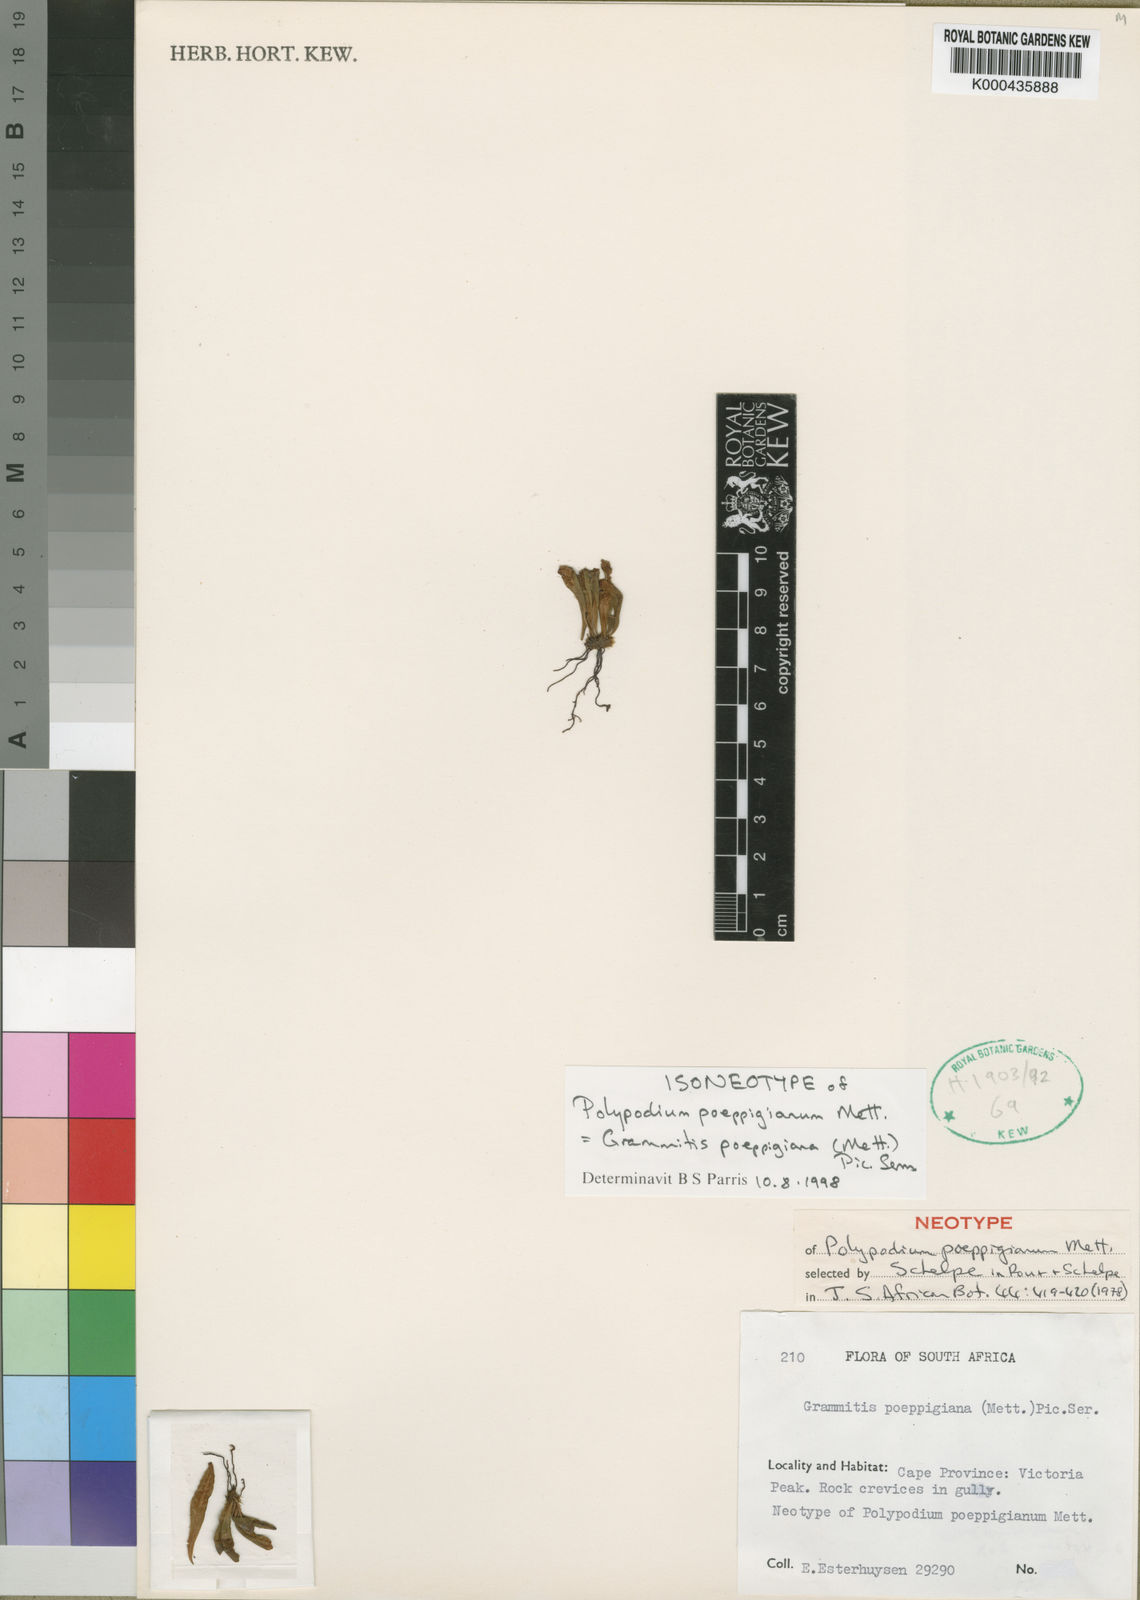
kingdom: Plantae
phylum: Tracheophyta
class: Polypodiopsida
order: Polypodiales
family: Polypodiaceae
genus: Notogrammitis
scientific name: Notogrammitis
